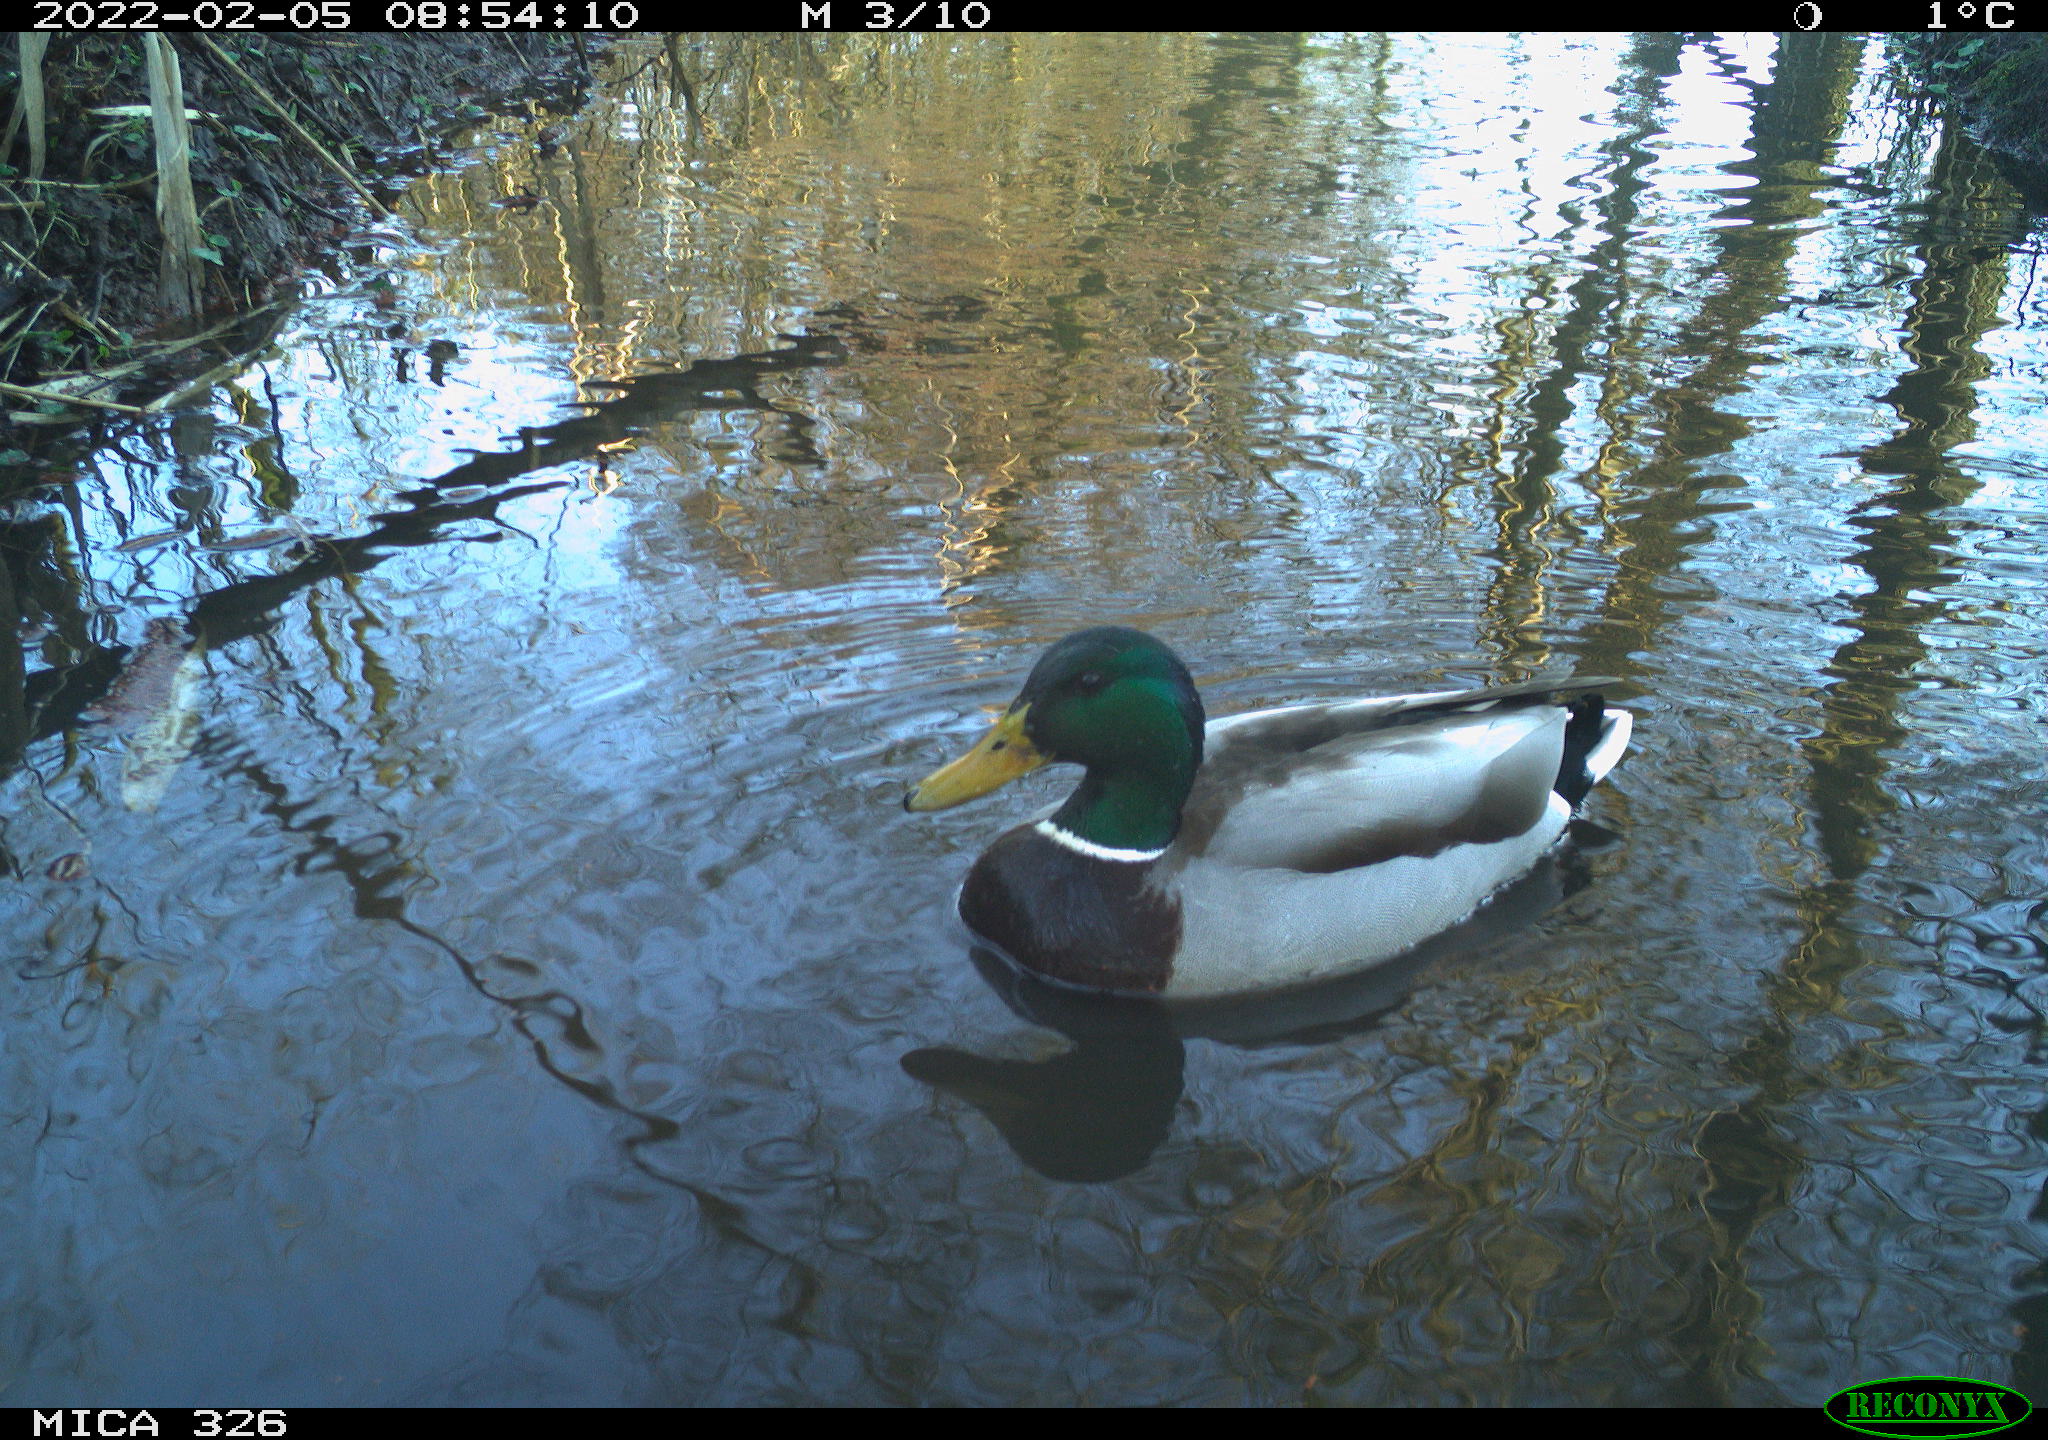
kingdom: Animalia
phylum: Chordata
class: Aves
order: Anseriformes
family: Anatidae
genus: Anas
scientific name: Anas platyrhynchos
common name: Mallard
